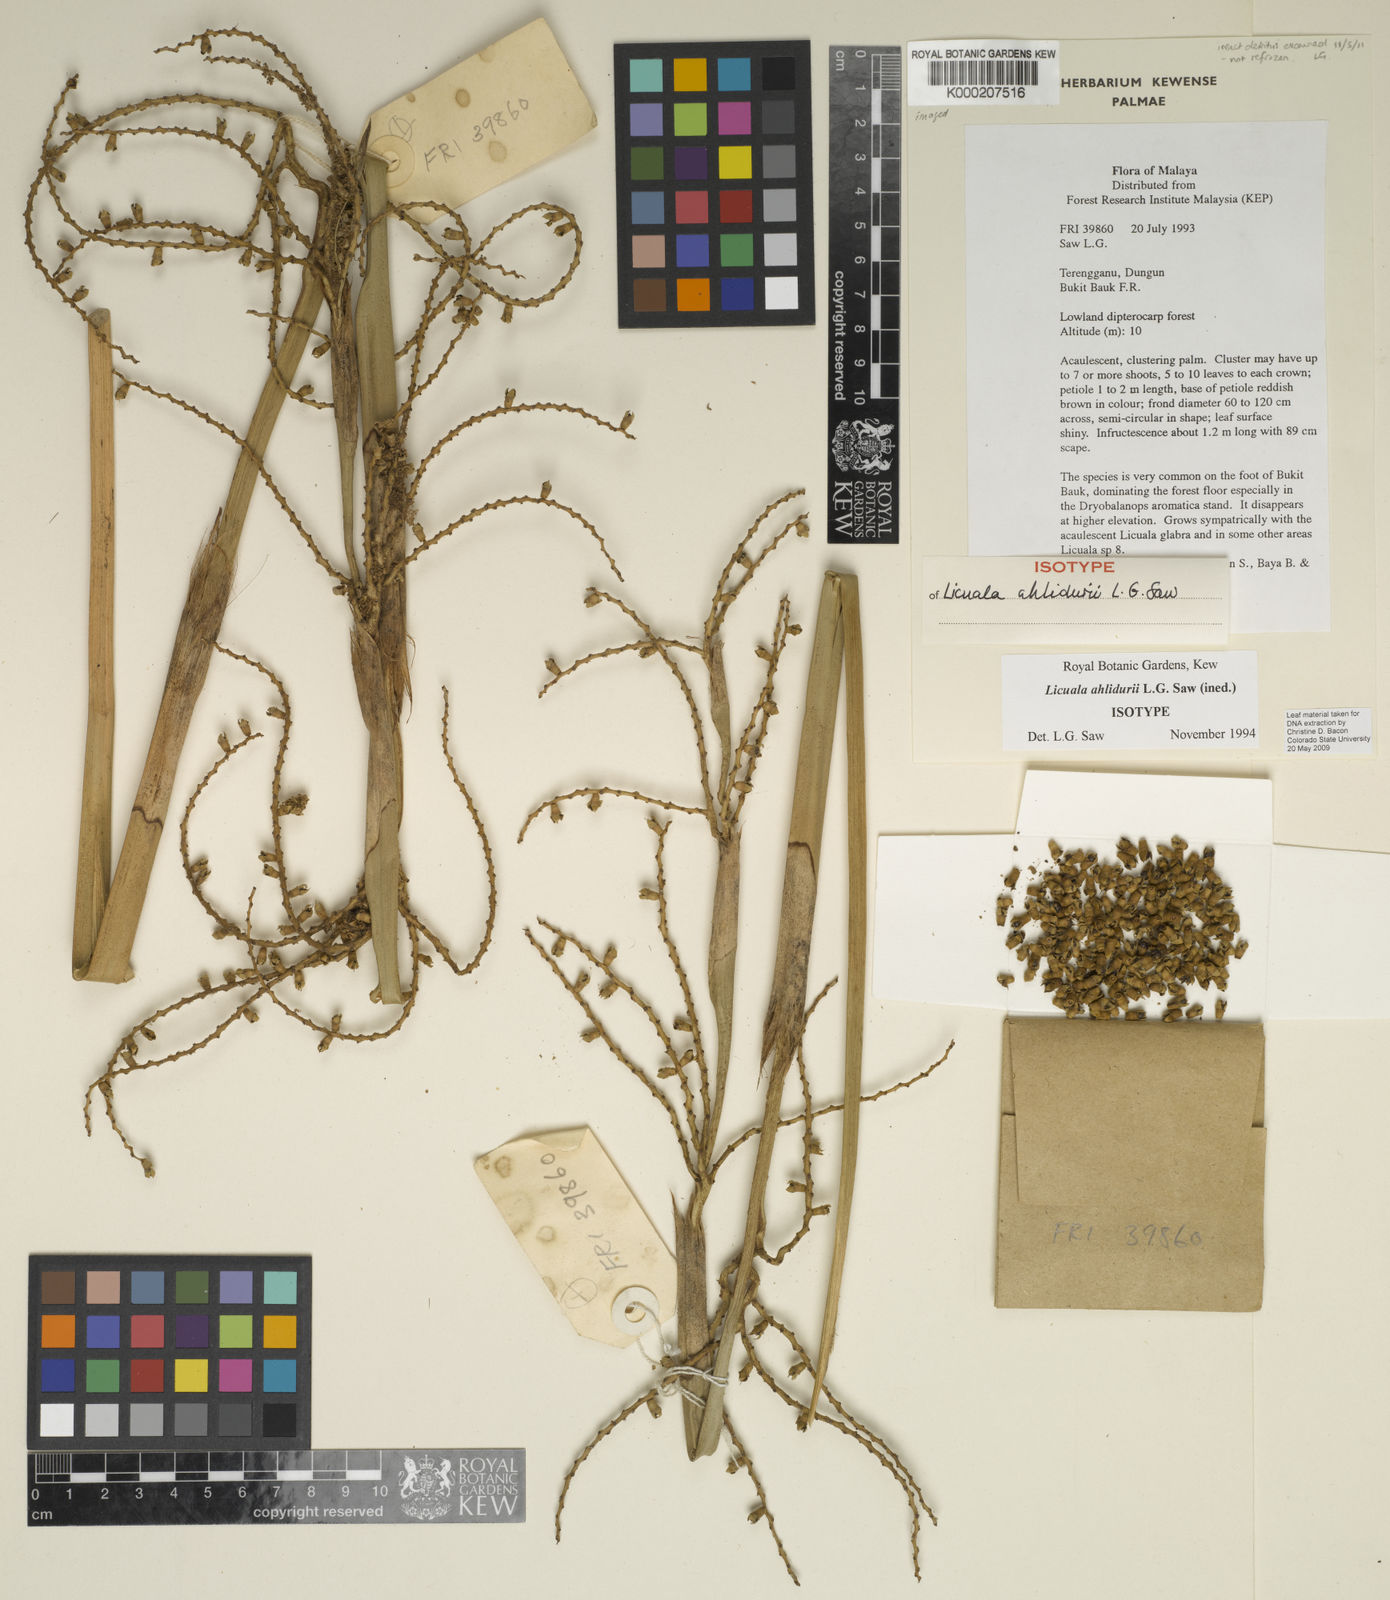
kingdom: Plantae
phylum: Tracheophyta
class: Liliopsida
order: Arecales
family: Arecaceae
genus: Licuala
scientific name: Licuala ahlidurii
